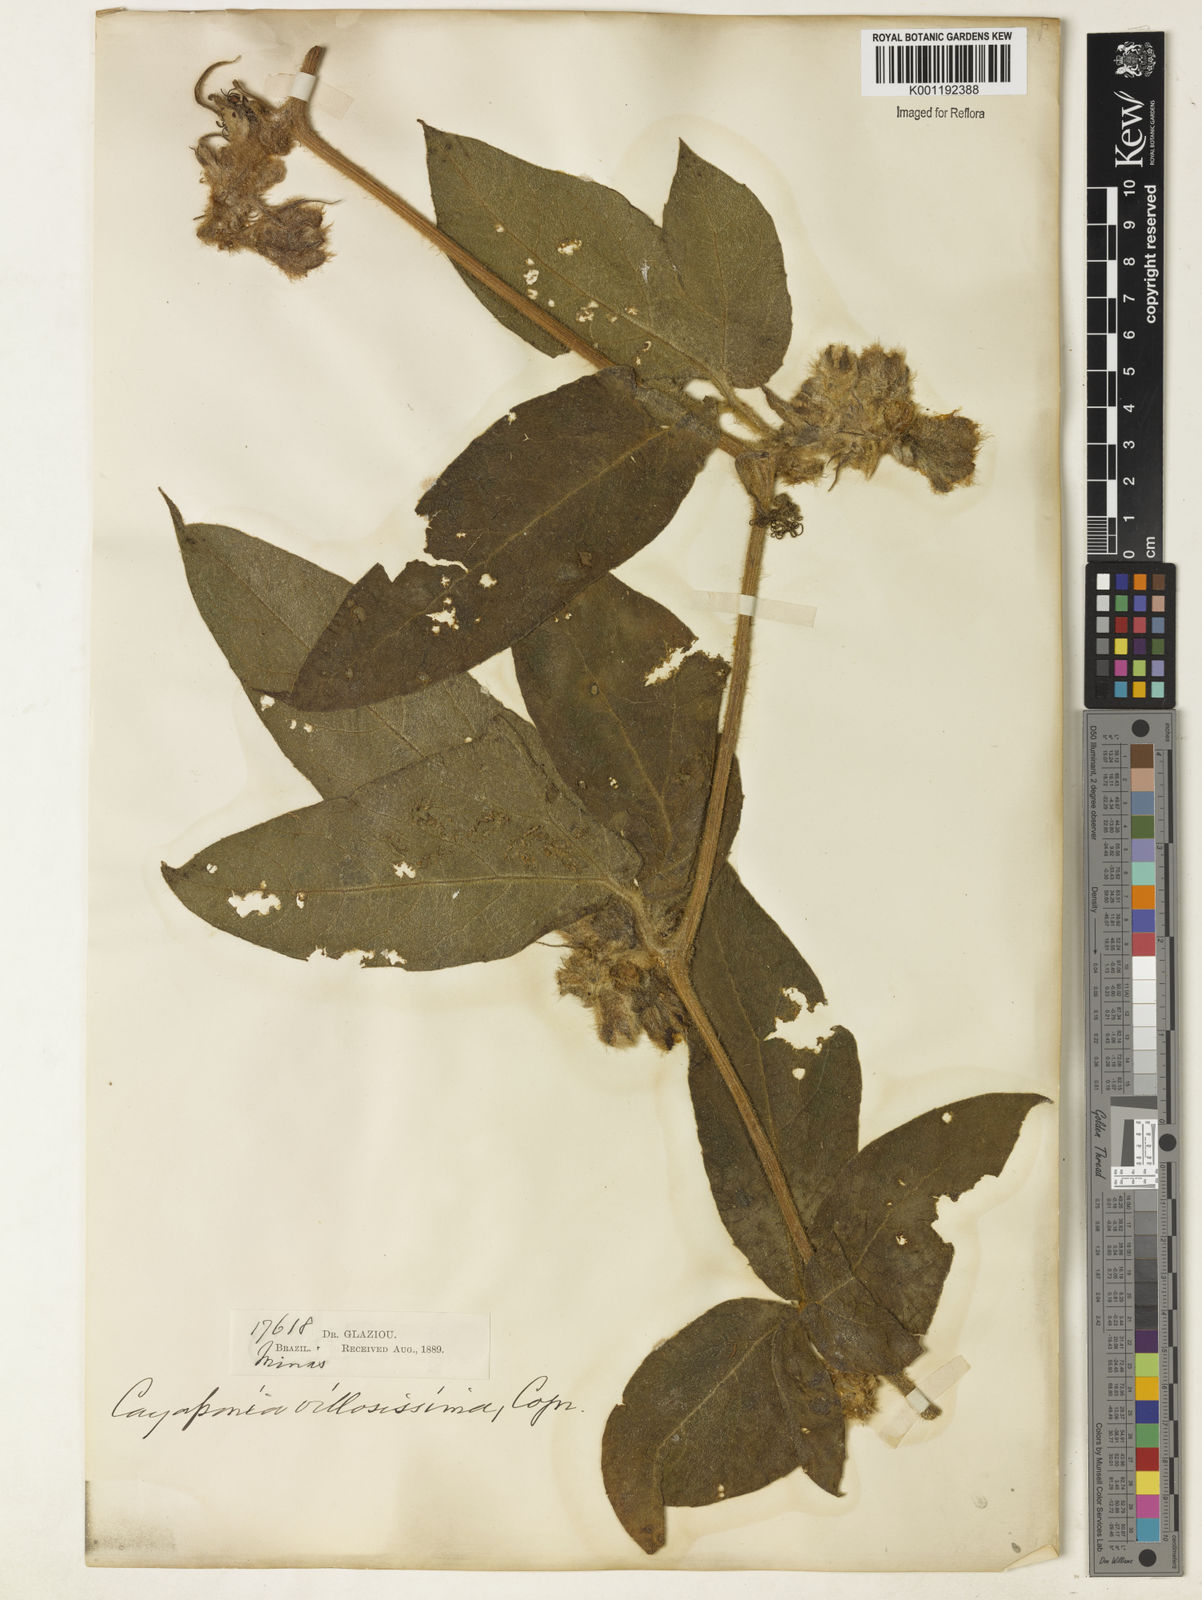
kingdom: Plantae
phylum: Tracheophyta
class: Magnoliopsida
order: Cucurbitales
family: Cucurbitaceae
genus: Cayaponia
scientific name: Cayaponia villosissima
